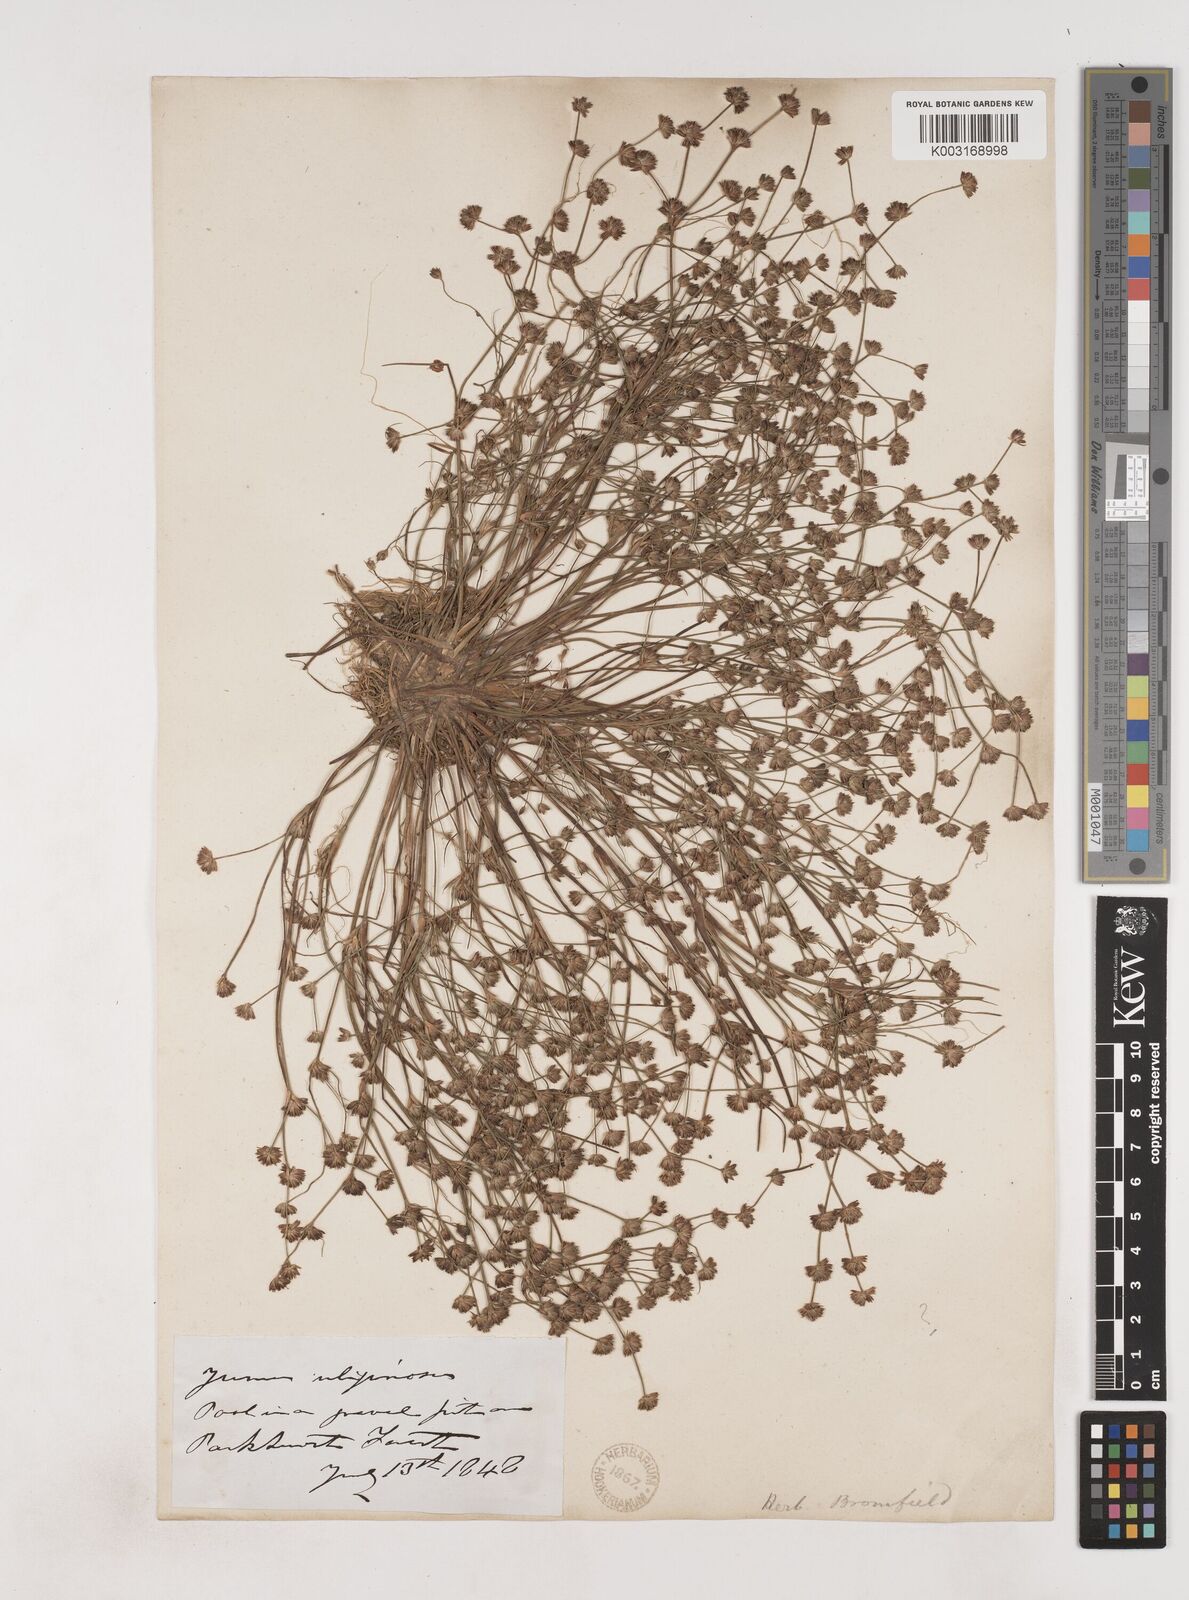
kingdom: Plantae
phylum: Tracheophyta
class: Liliopsida
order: Poales
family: Juncaceae
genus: Juncus
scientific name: Juncus bulbosus
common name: Bulbous rush
